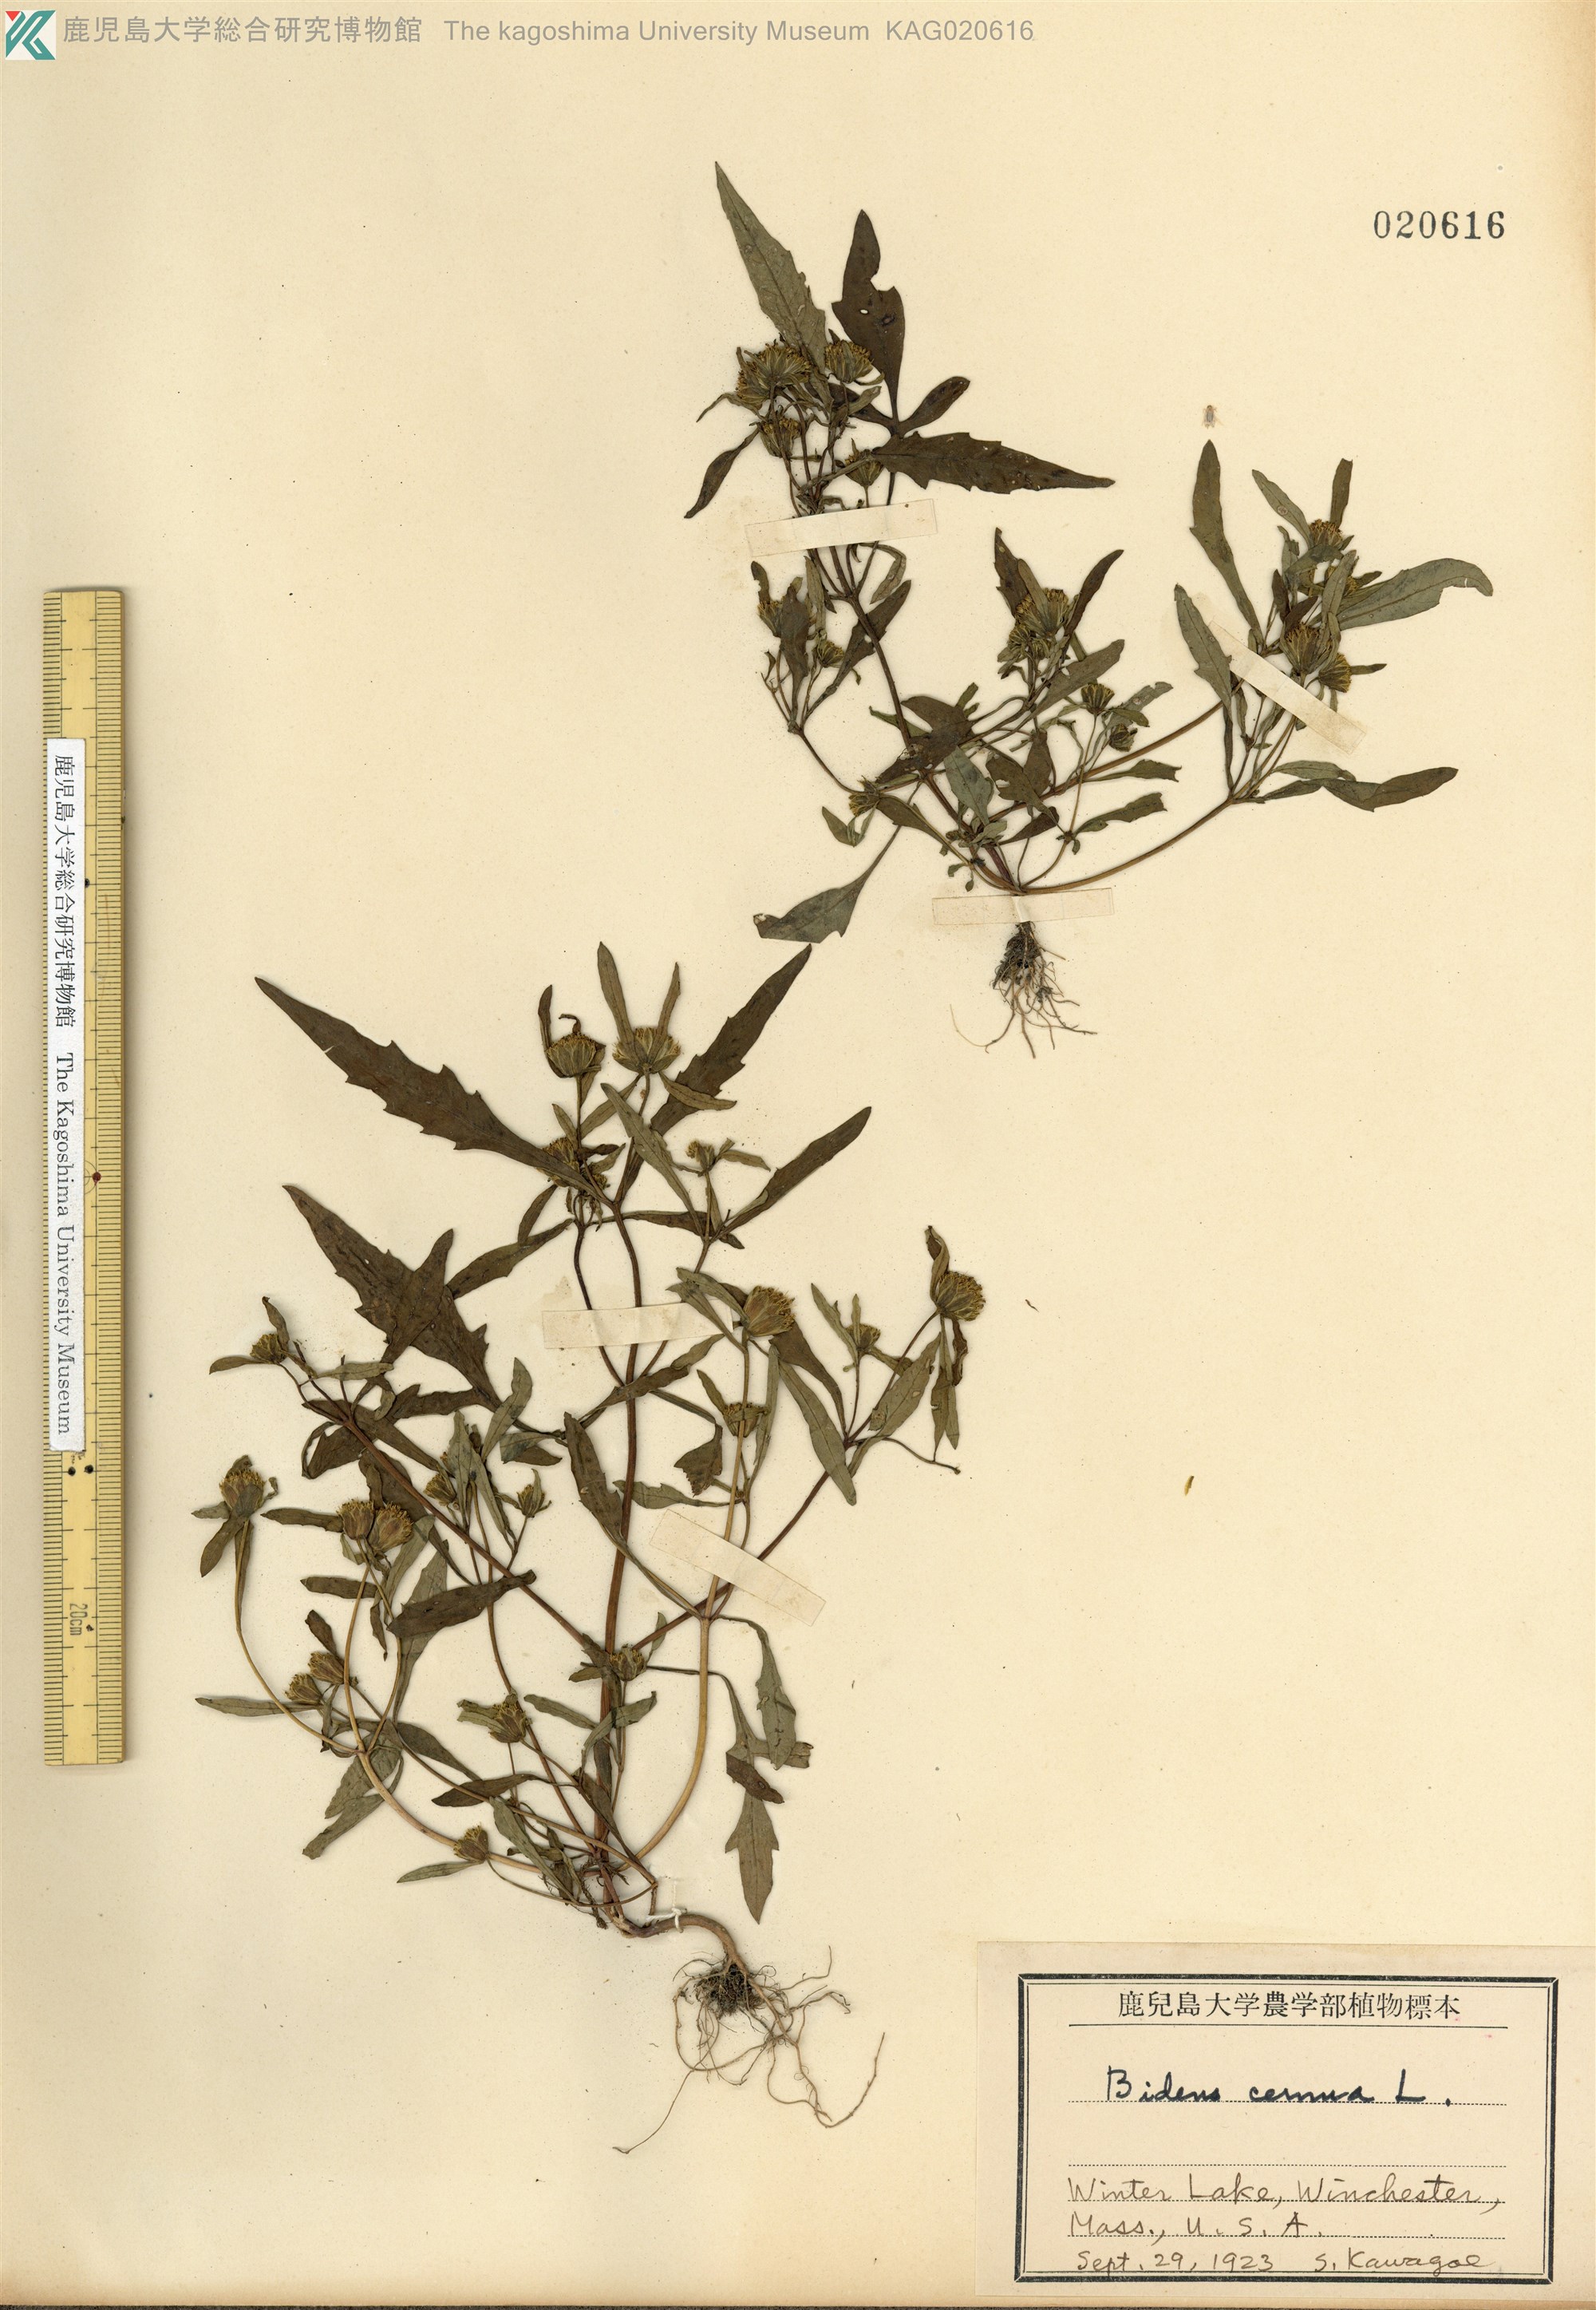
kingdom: Plantae
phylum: Tracheophyta
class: Magnoliopsida
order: Asterales
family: Asteraceae
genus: Bidens
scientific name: Bidens cernua
